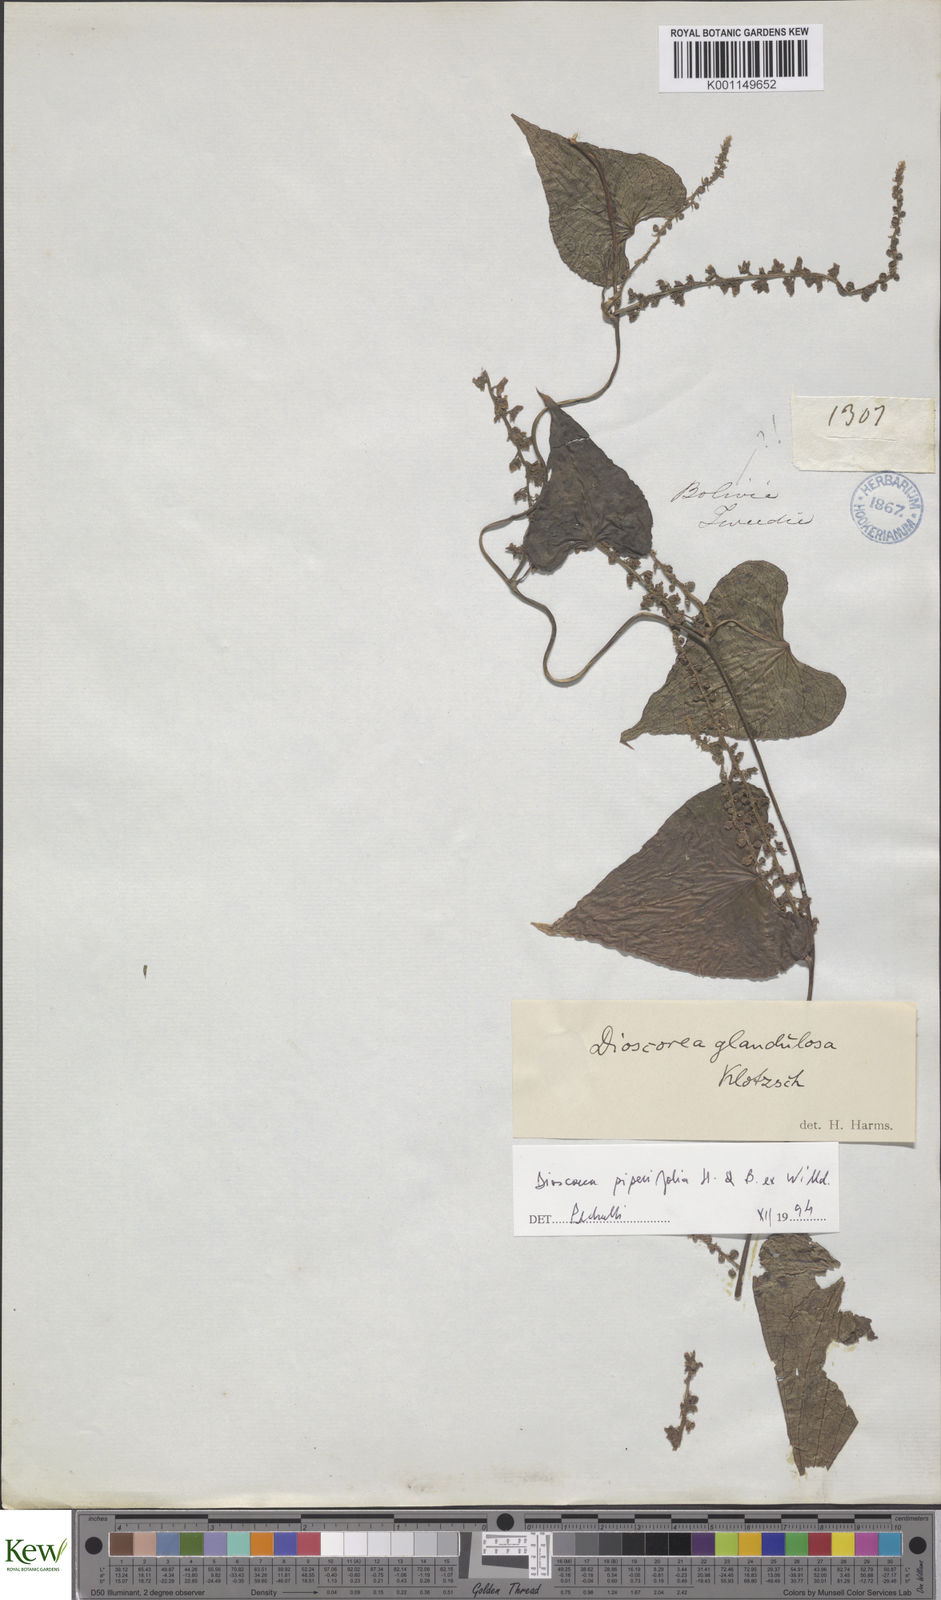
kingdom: Plantae
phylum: Tracheophyta
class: Liliopsida
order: Dioscoreales
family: Dioscoreaceae
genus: Dioscorea
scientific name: Dioscorea glandulosa
